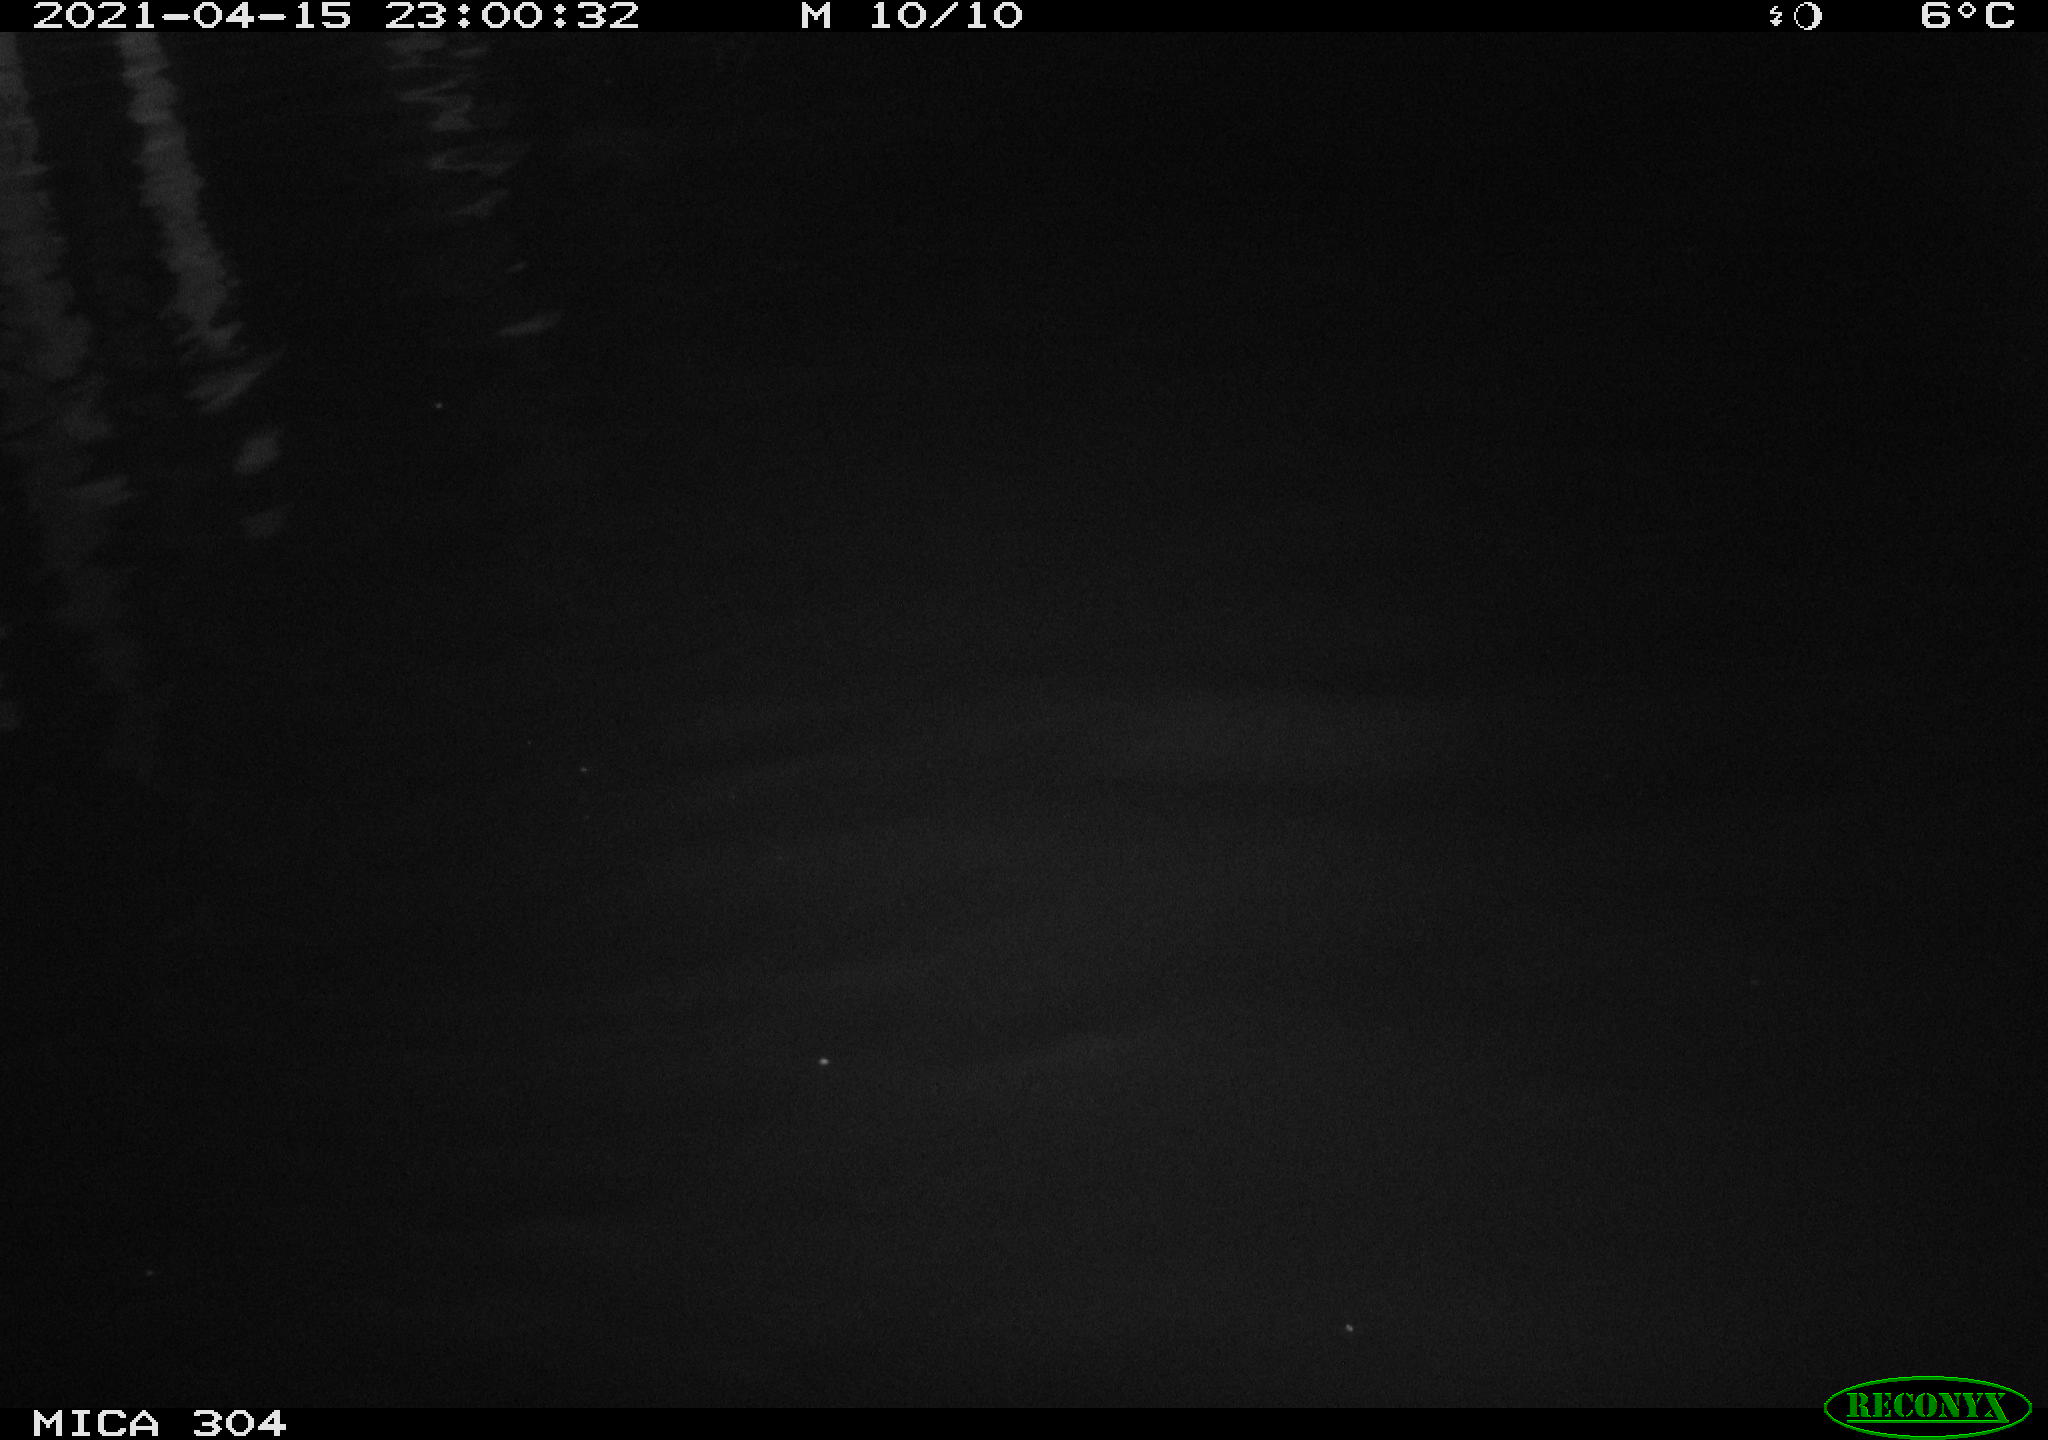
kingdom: Animalia
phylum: Chordata
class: Aves
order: Anseriformes
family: Anatidae
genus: Anas
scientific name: Anas
